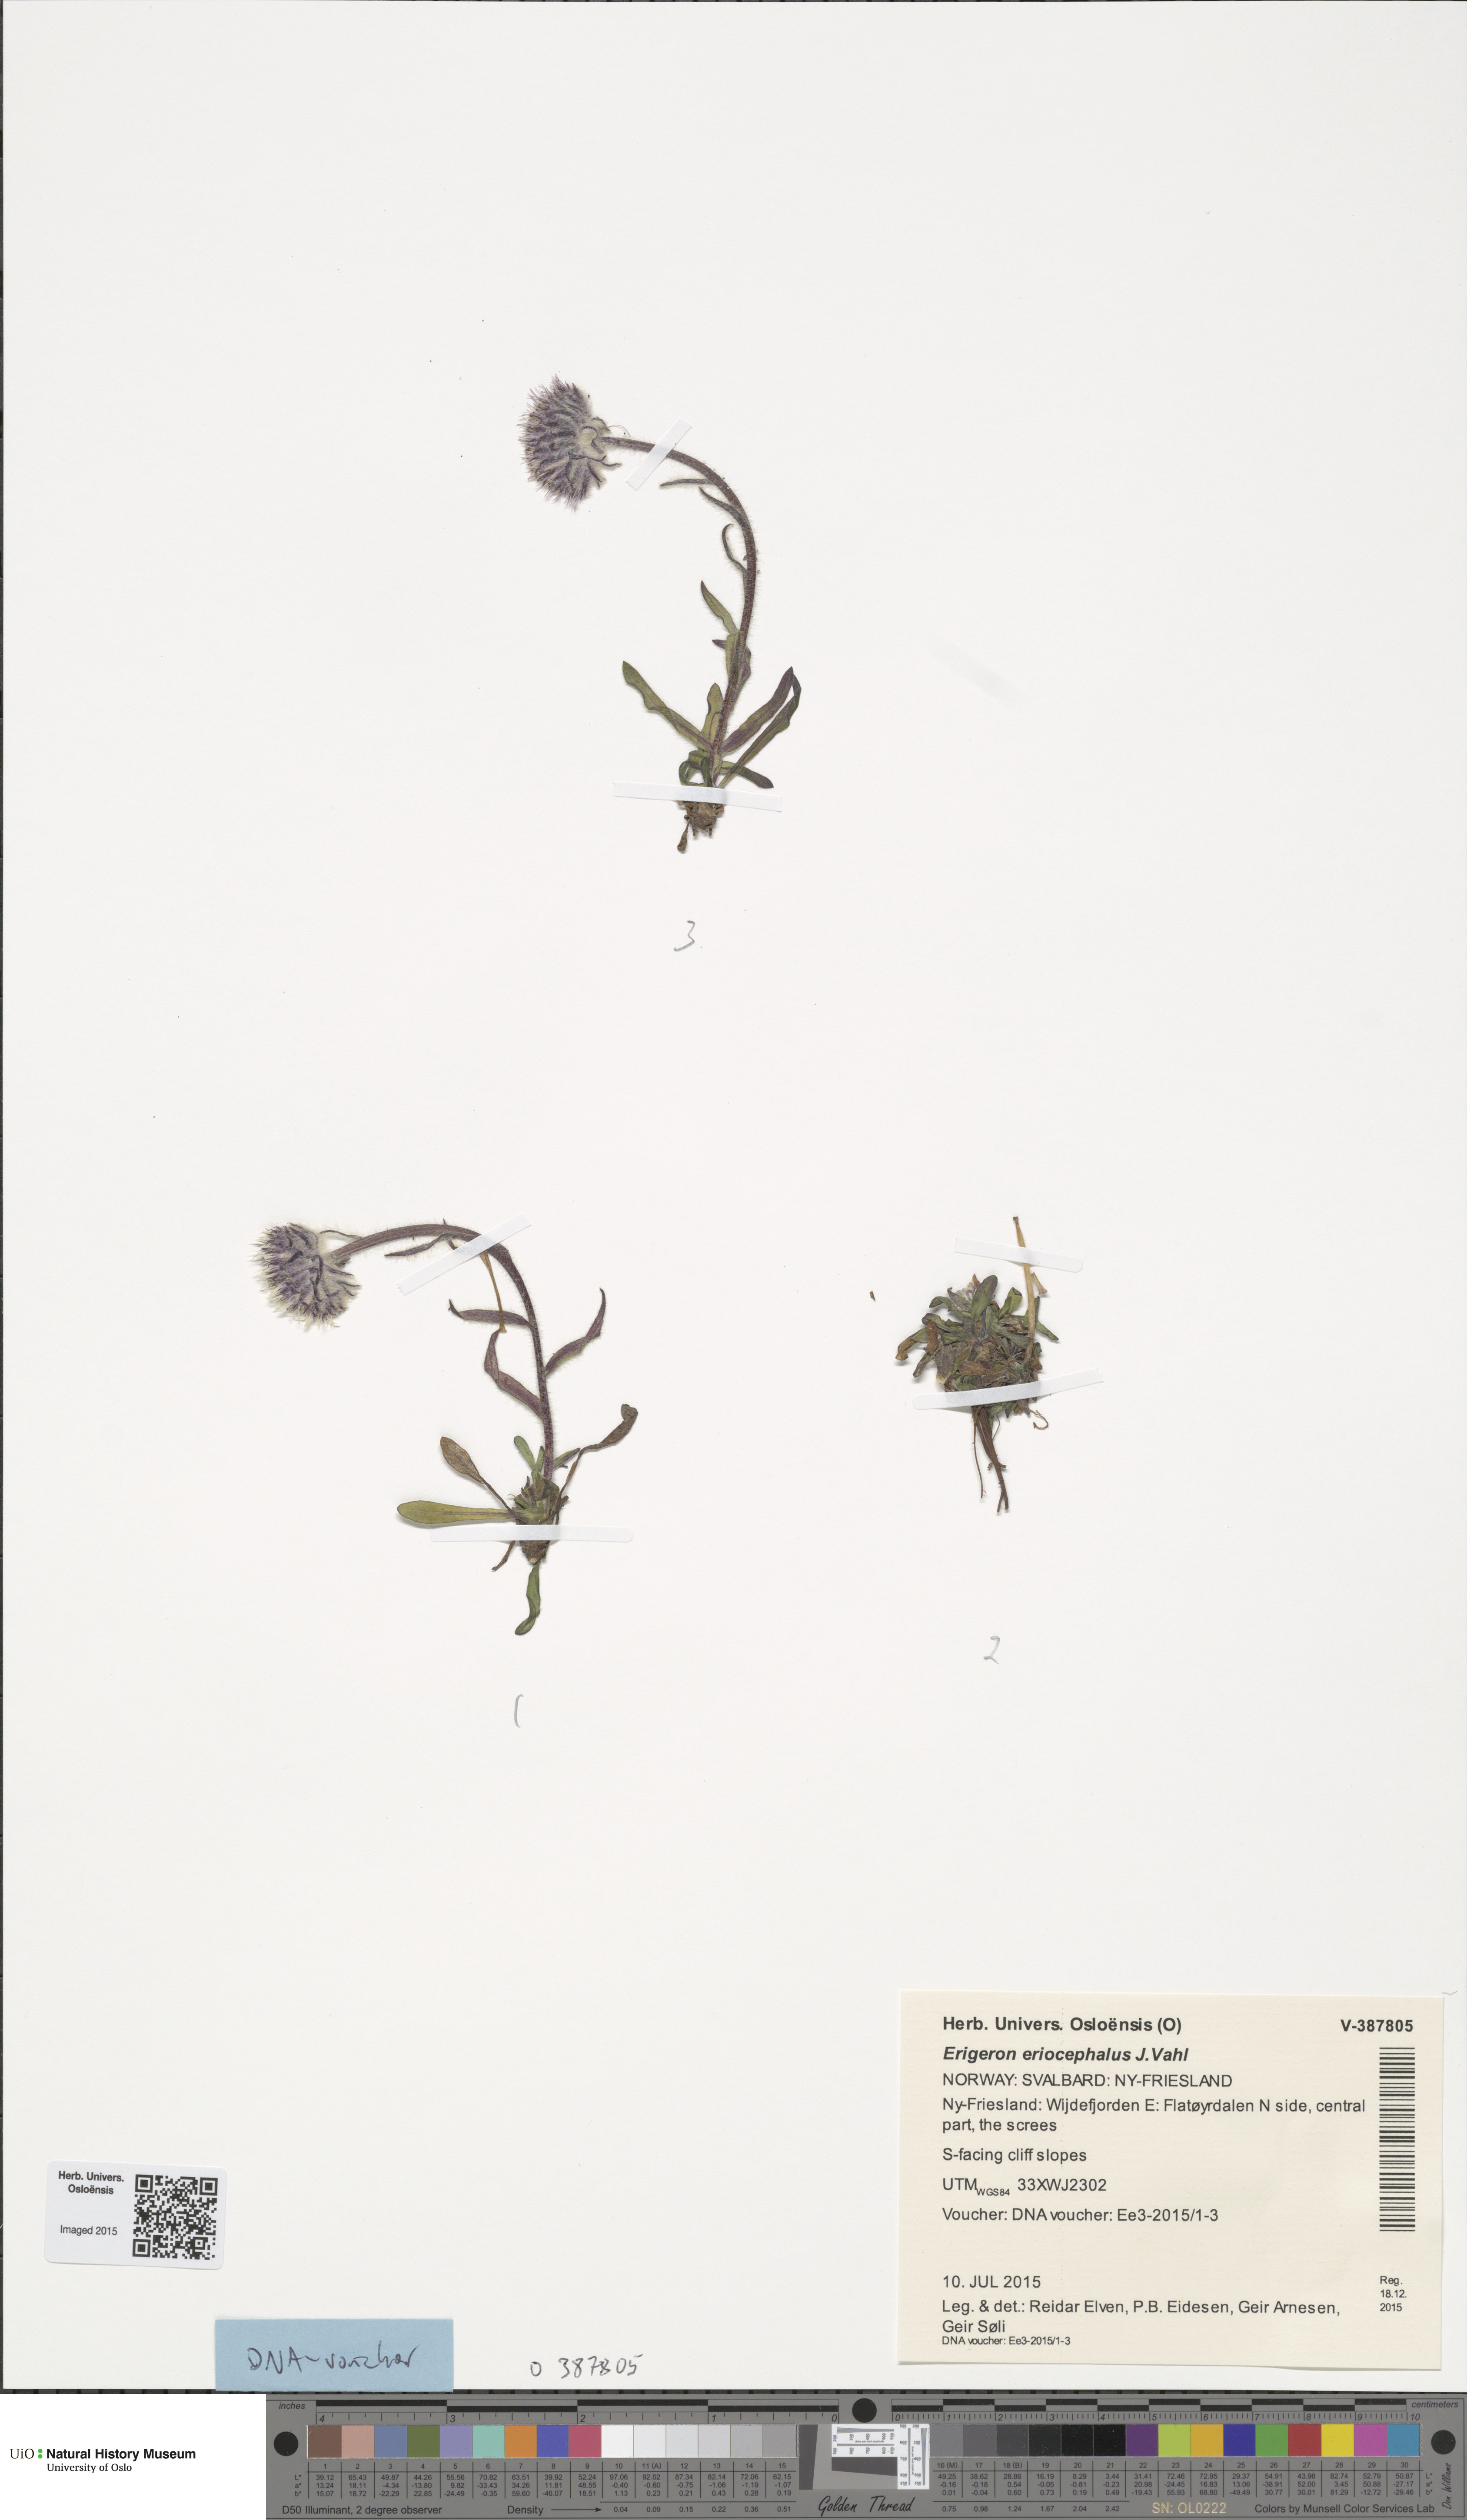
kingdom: Plantae
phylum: Tracheophyta
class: Magnoliopsida
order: Asterales
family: Asteraceae
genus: Erigeron
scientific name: Erigeron eriocephalus
